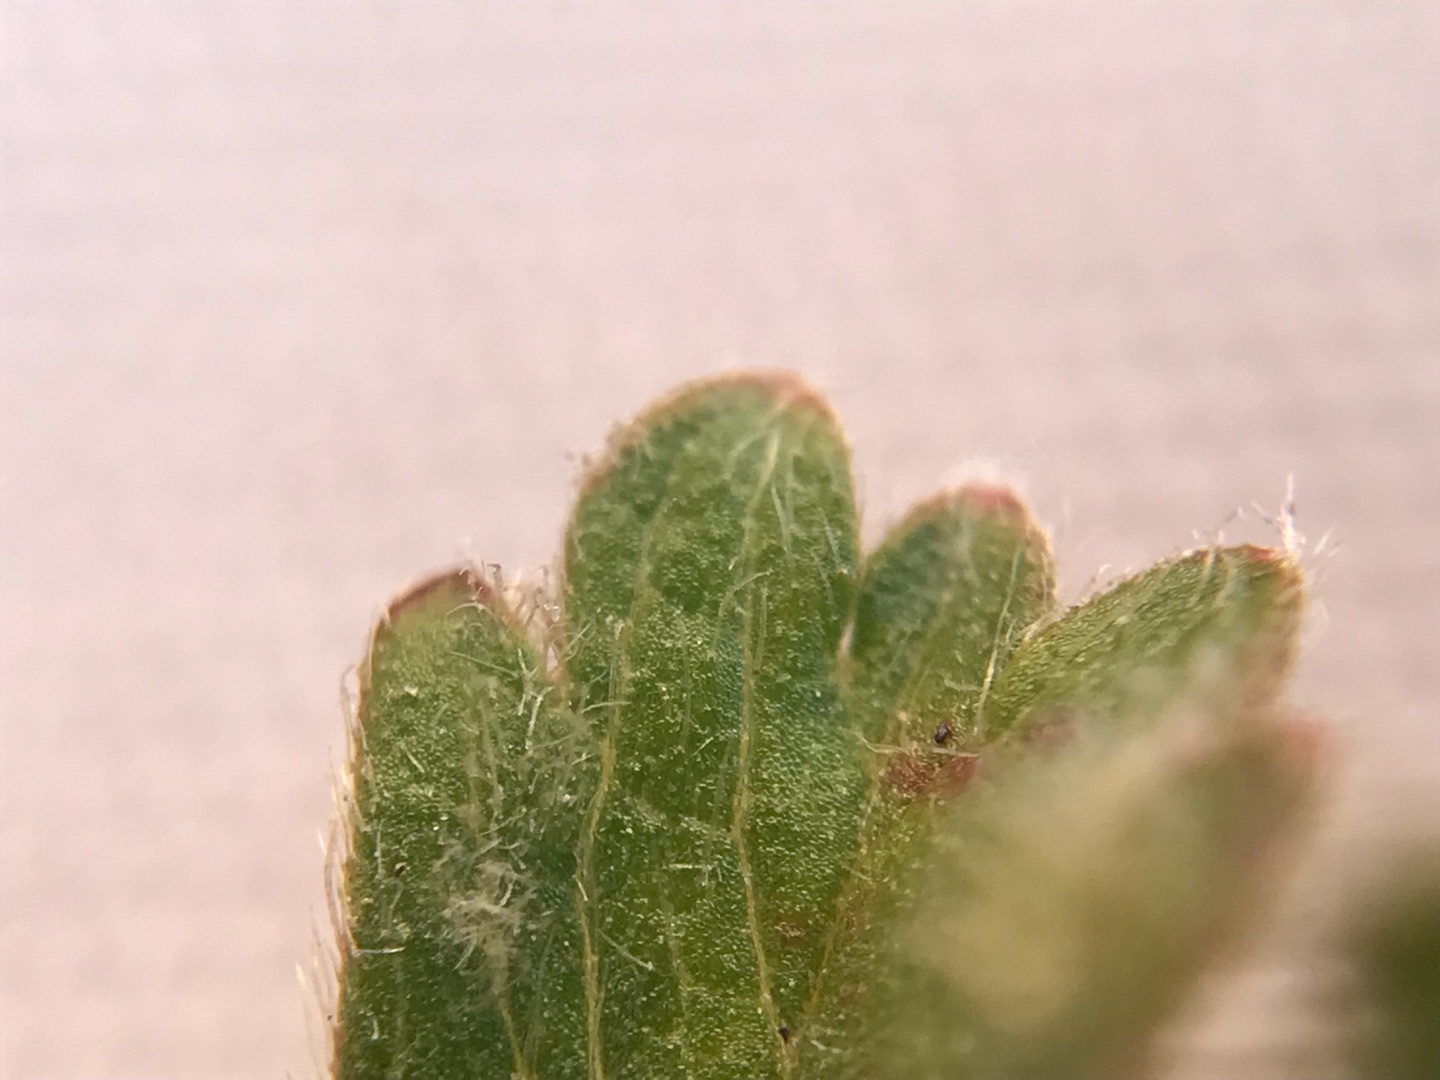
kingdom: Plantae
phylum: Tracheophyta
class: Magnoliopsida
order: Rosales
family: Rosaceae
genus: Potentilla
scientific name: Potentilla verna
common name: Vår-potentil
